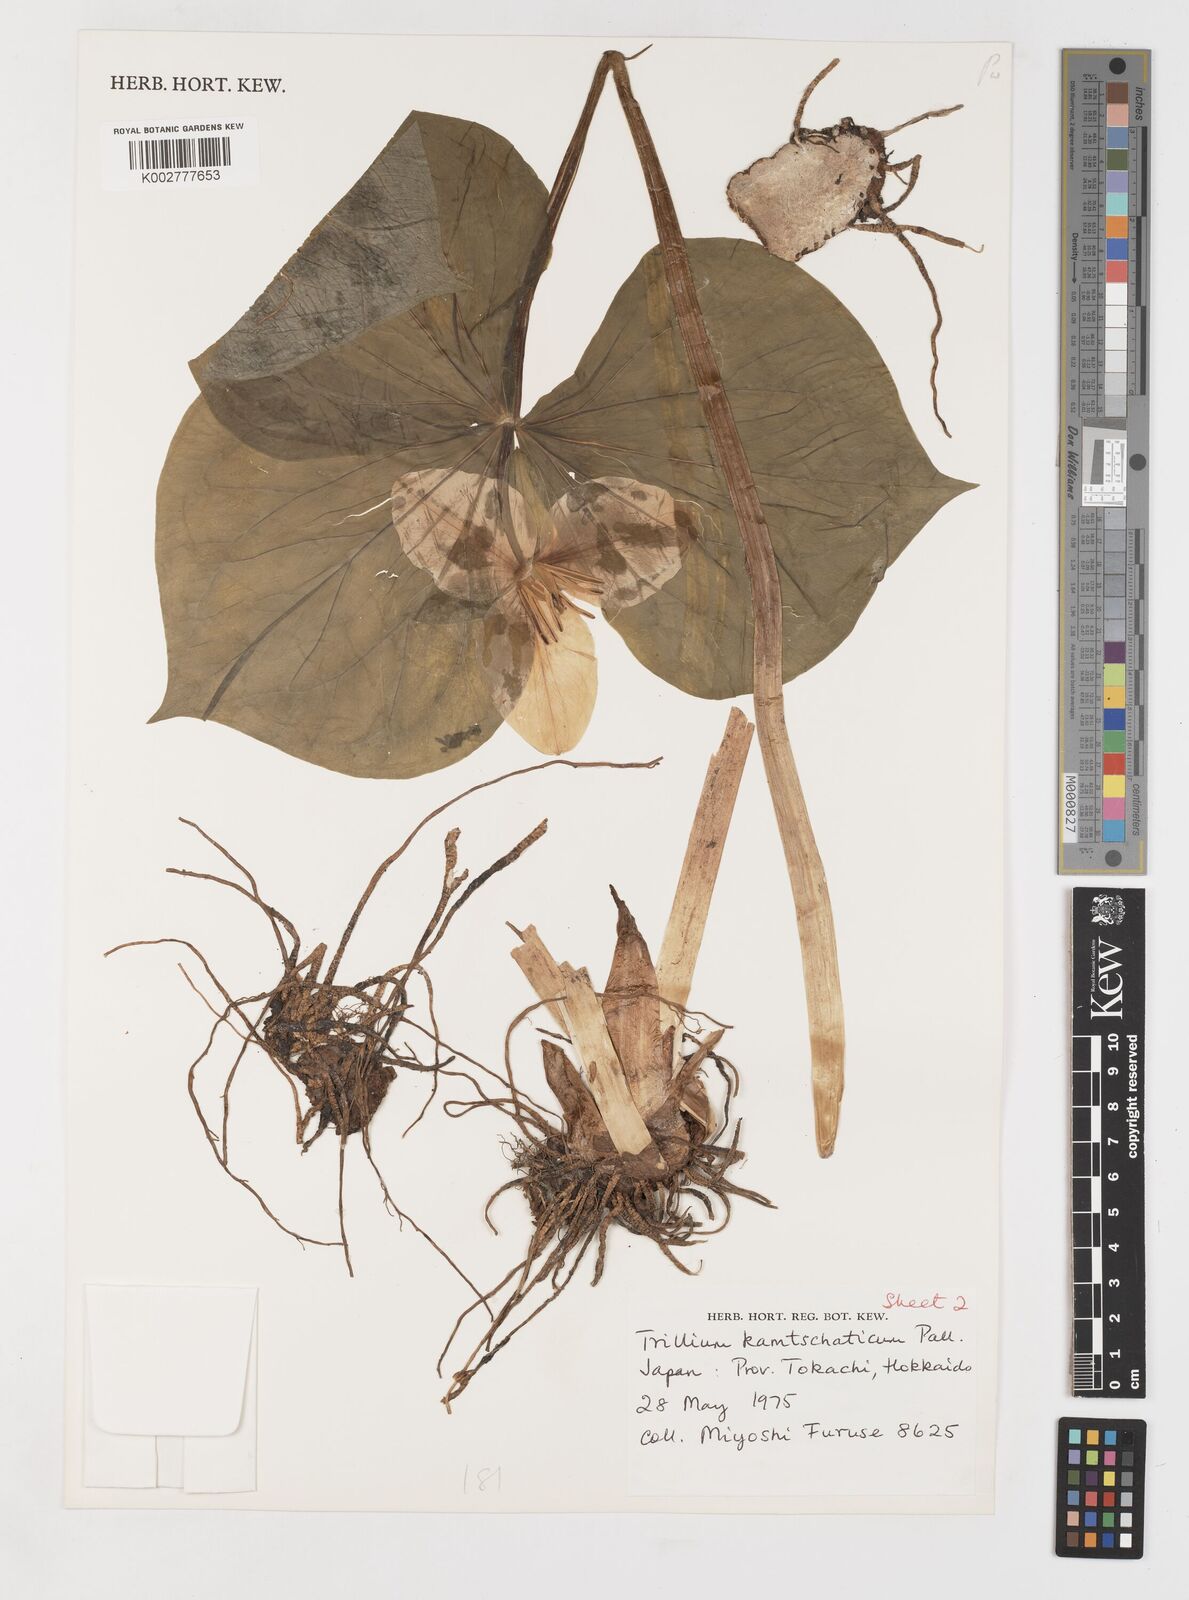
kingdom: Plantae
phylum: Tracheophyta
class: Liliopsida
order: Liliales
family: Melanthiaceae
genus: Trillium
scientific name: Trillium camschatcense
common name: Kamchatka trillium
